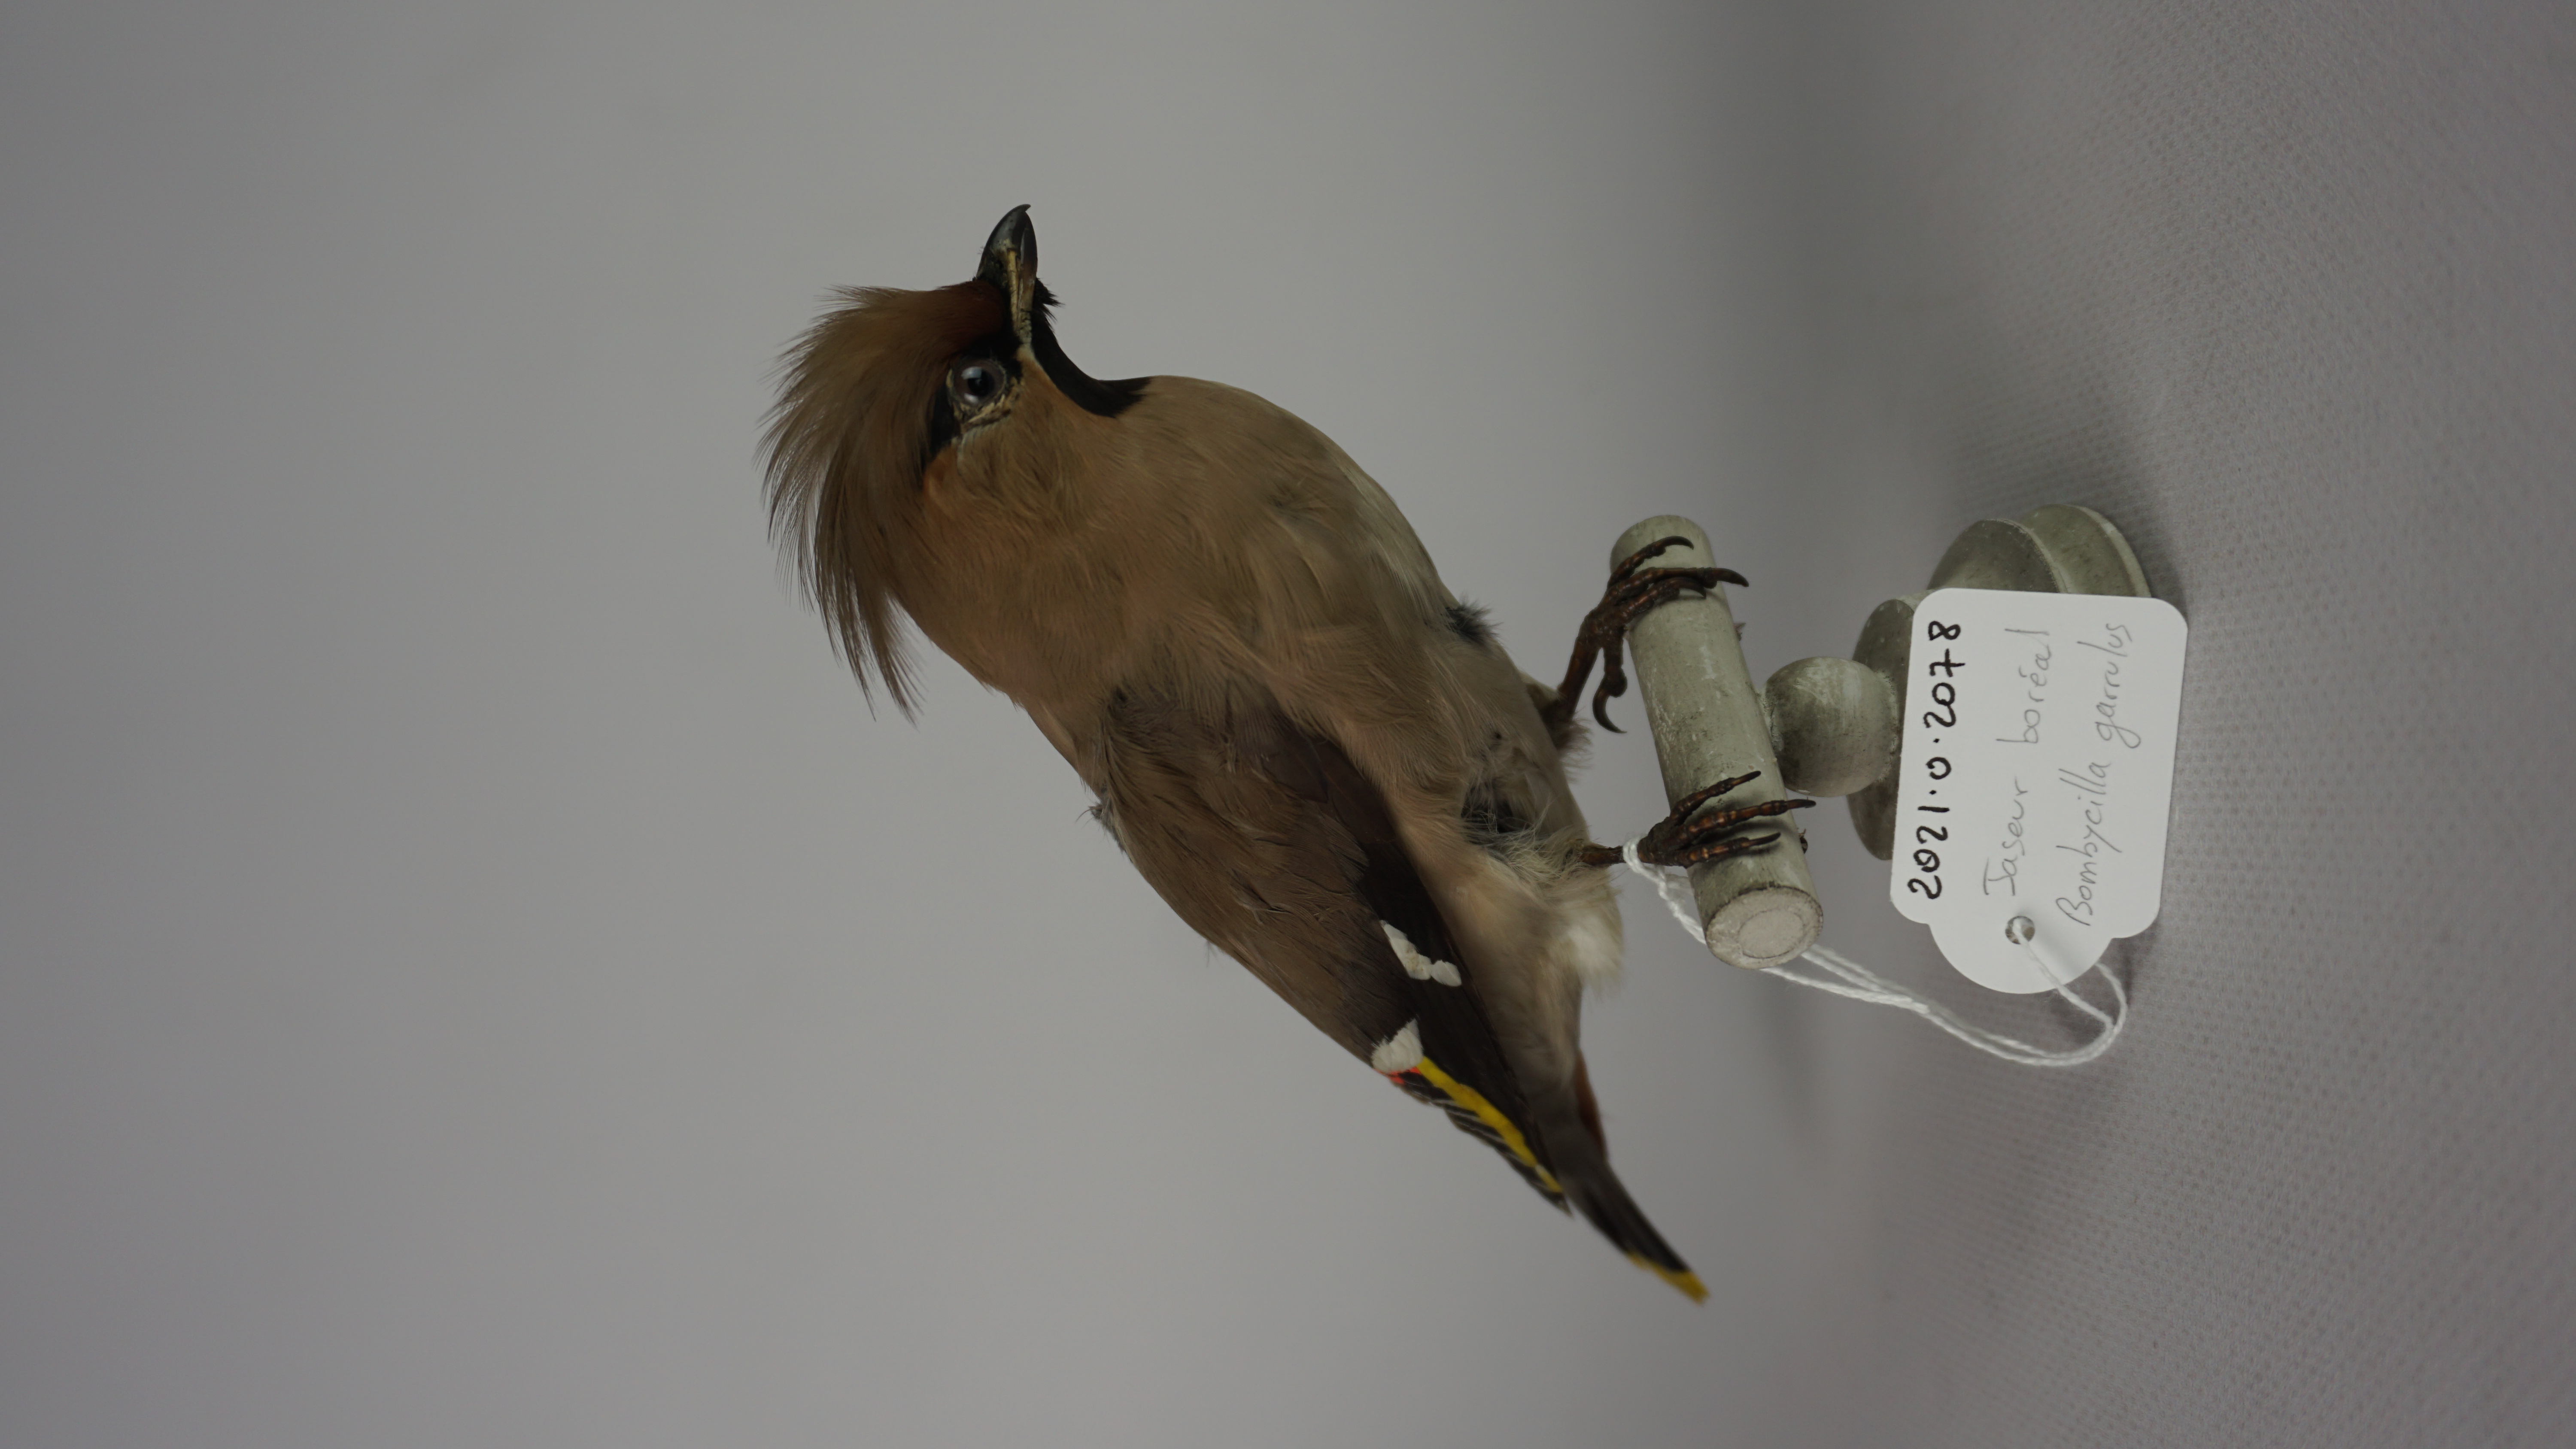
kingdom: Animalia
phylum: Chordata
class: Aves
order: Passeriformes
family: Bombycillidae
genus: Bombycilla
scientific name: Bombycilla garrulus
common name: Bohemian waxwing
